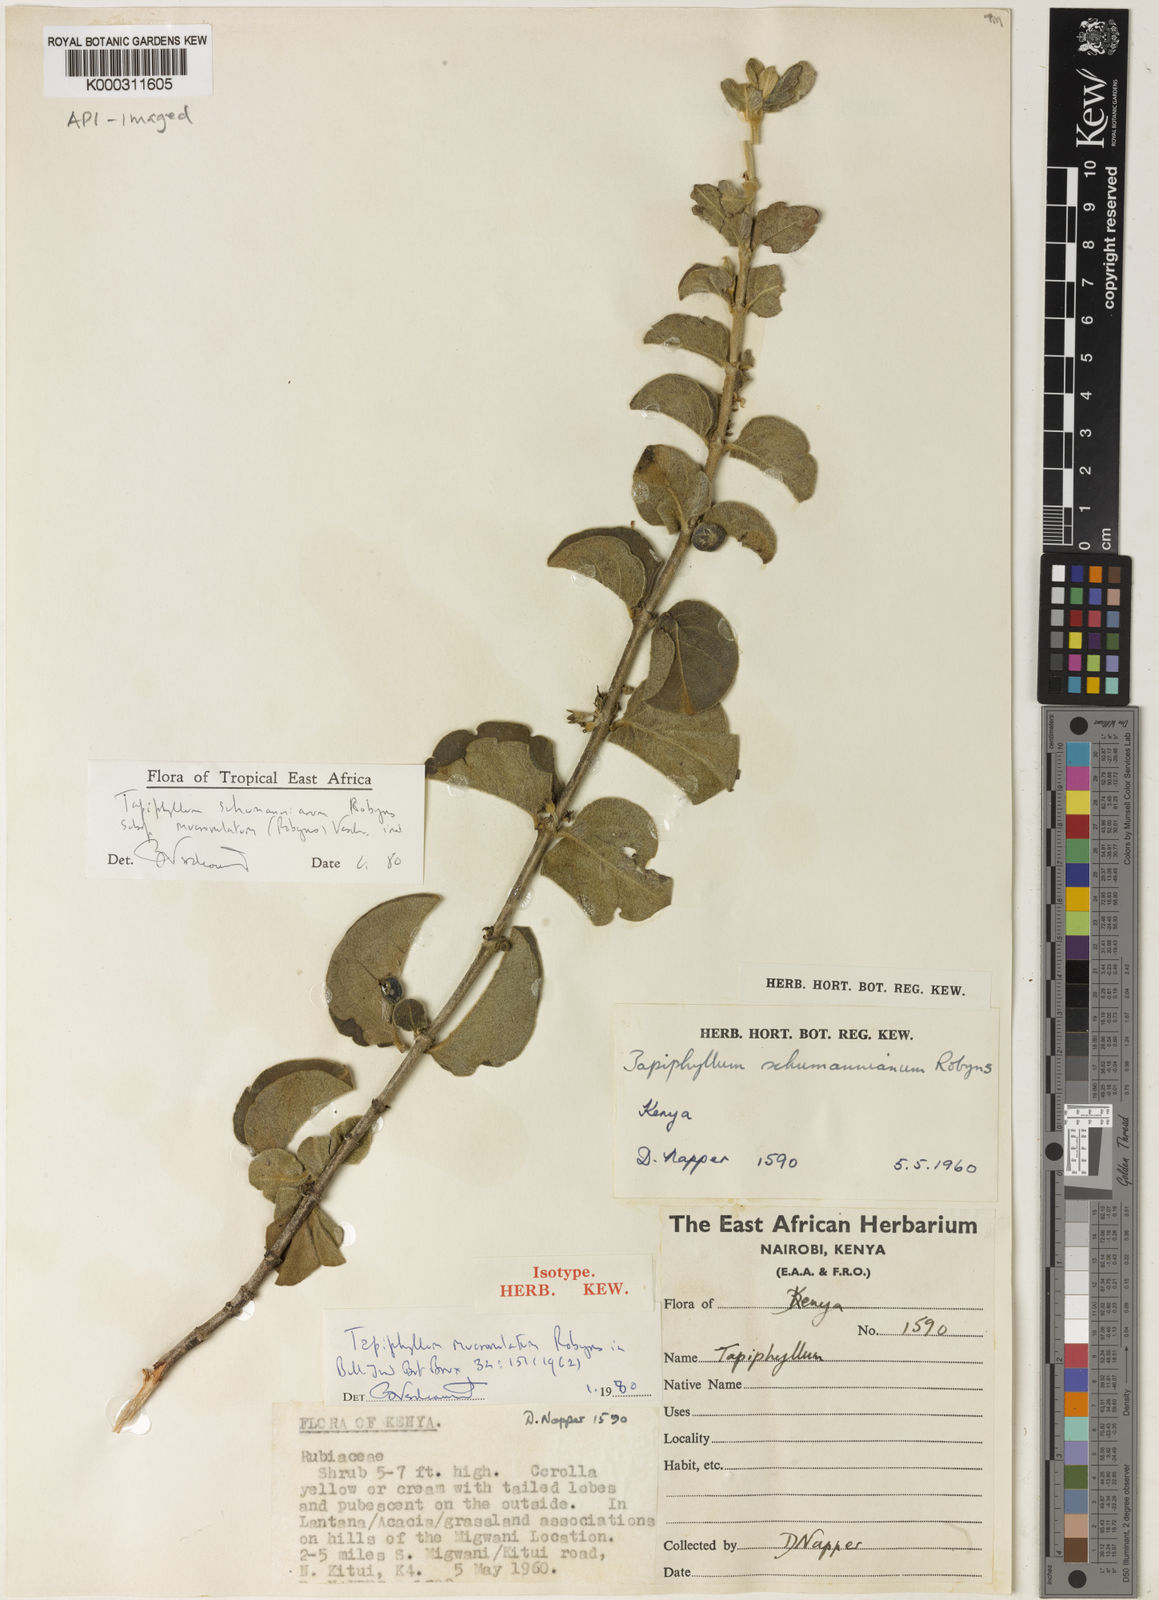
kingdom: Plantae
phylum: Tracheophyta
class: Magnoliopsida
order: Gentianales
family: Rubiaceae
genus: Vangueria
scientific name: Vangueria schumanniana
